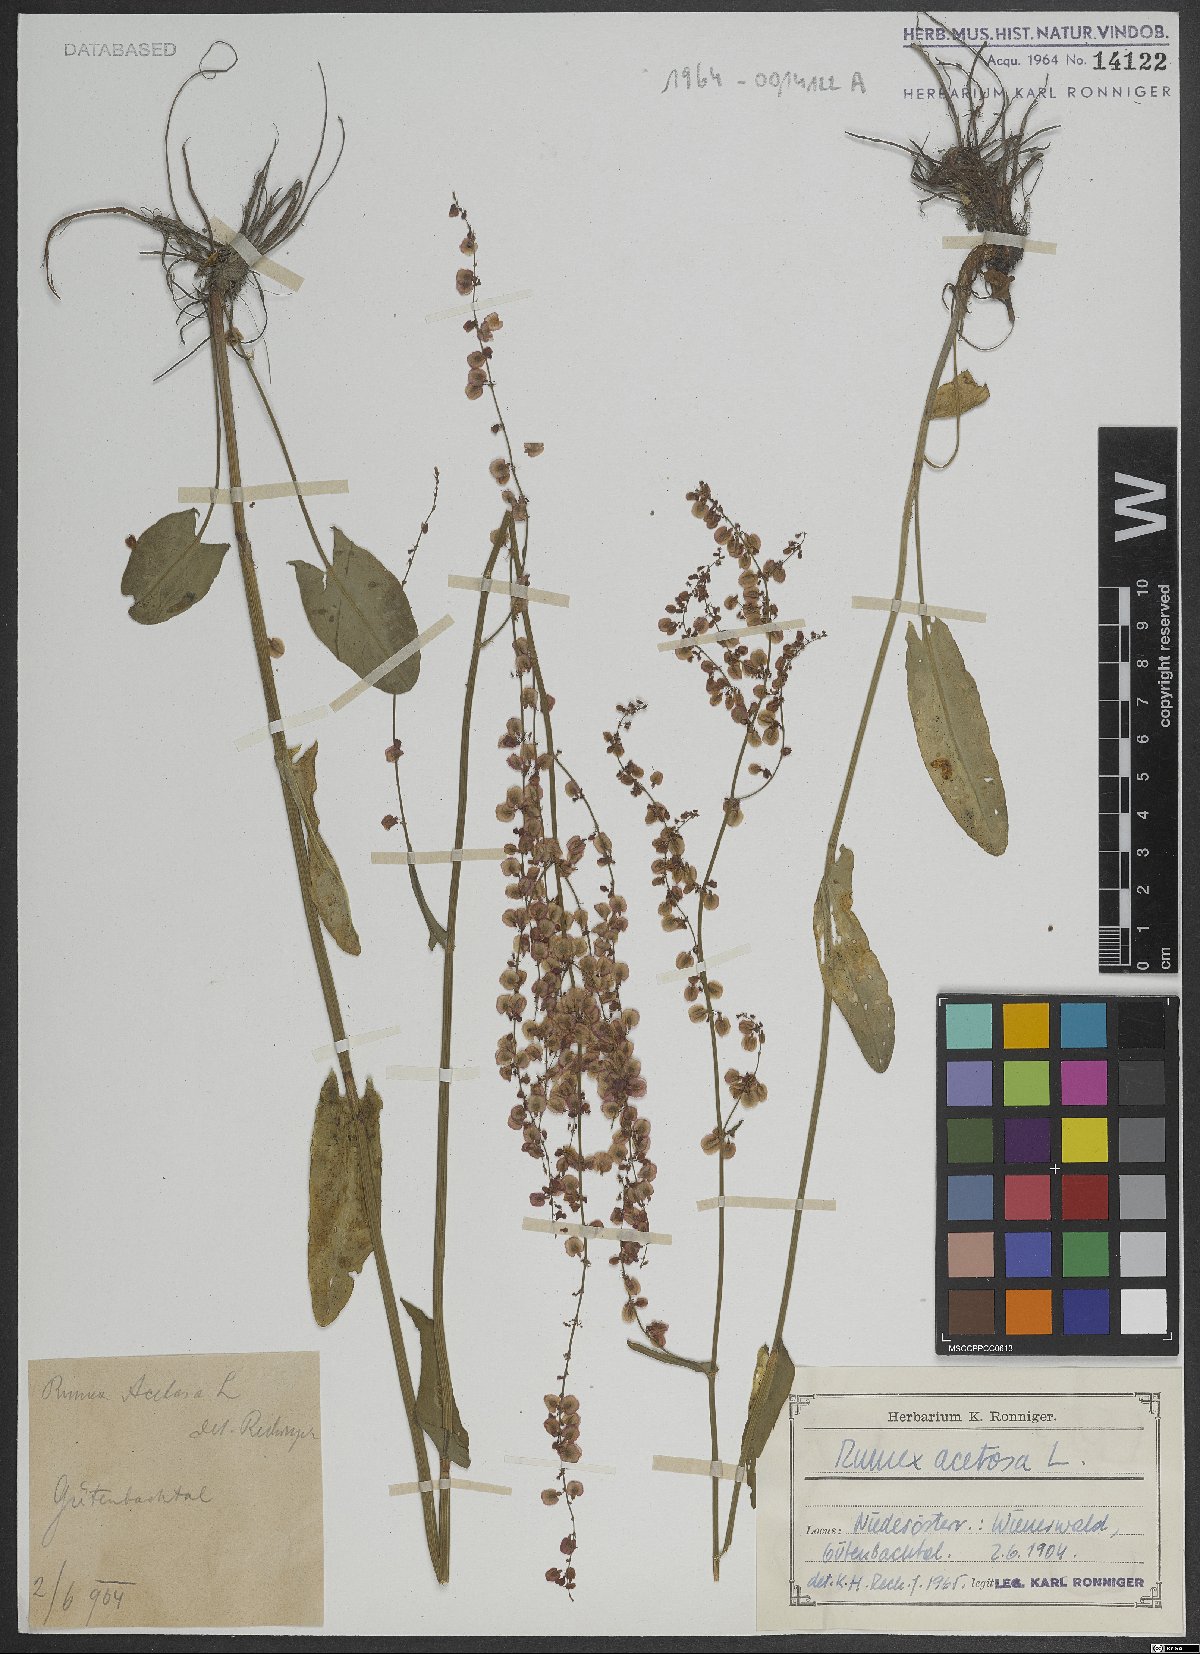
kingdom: Plantae
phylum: Tracheophyta
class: Magnoliopsida
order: Caryophyllales
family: Polygonaceae
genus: Rumex
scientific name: Rumex acetosa
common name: Garden sorrel
